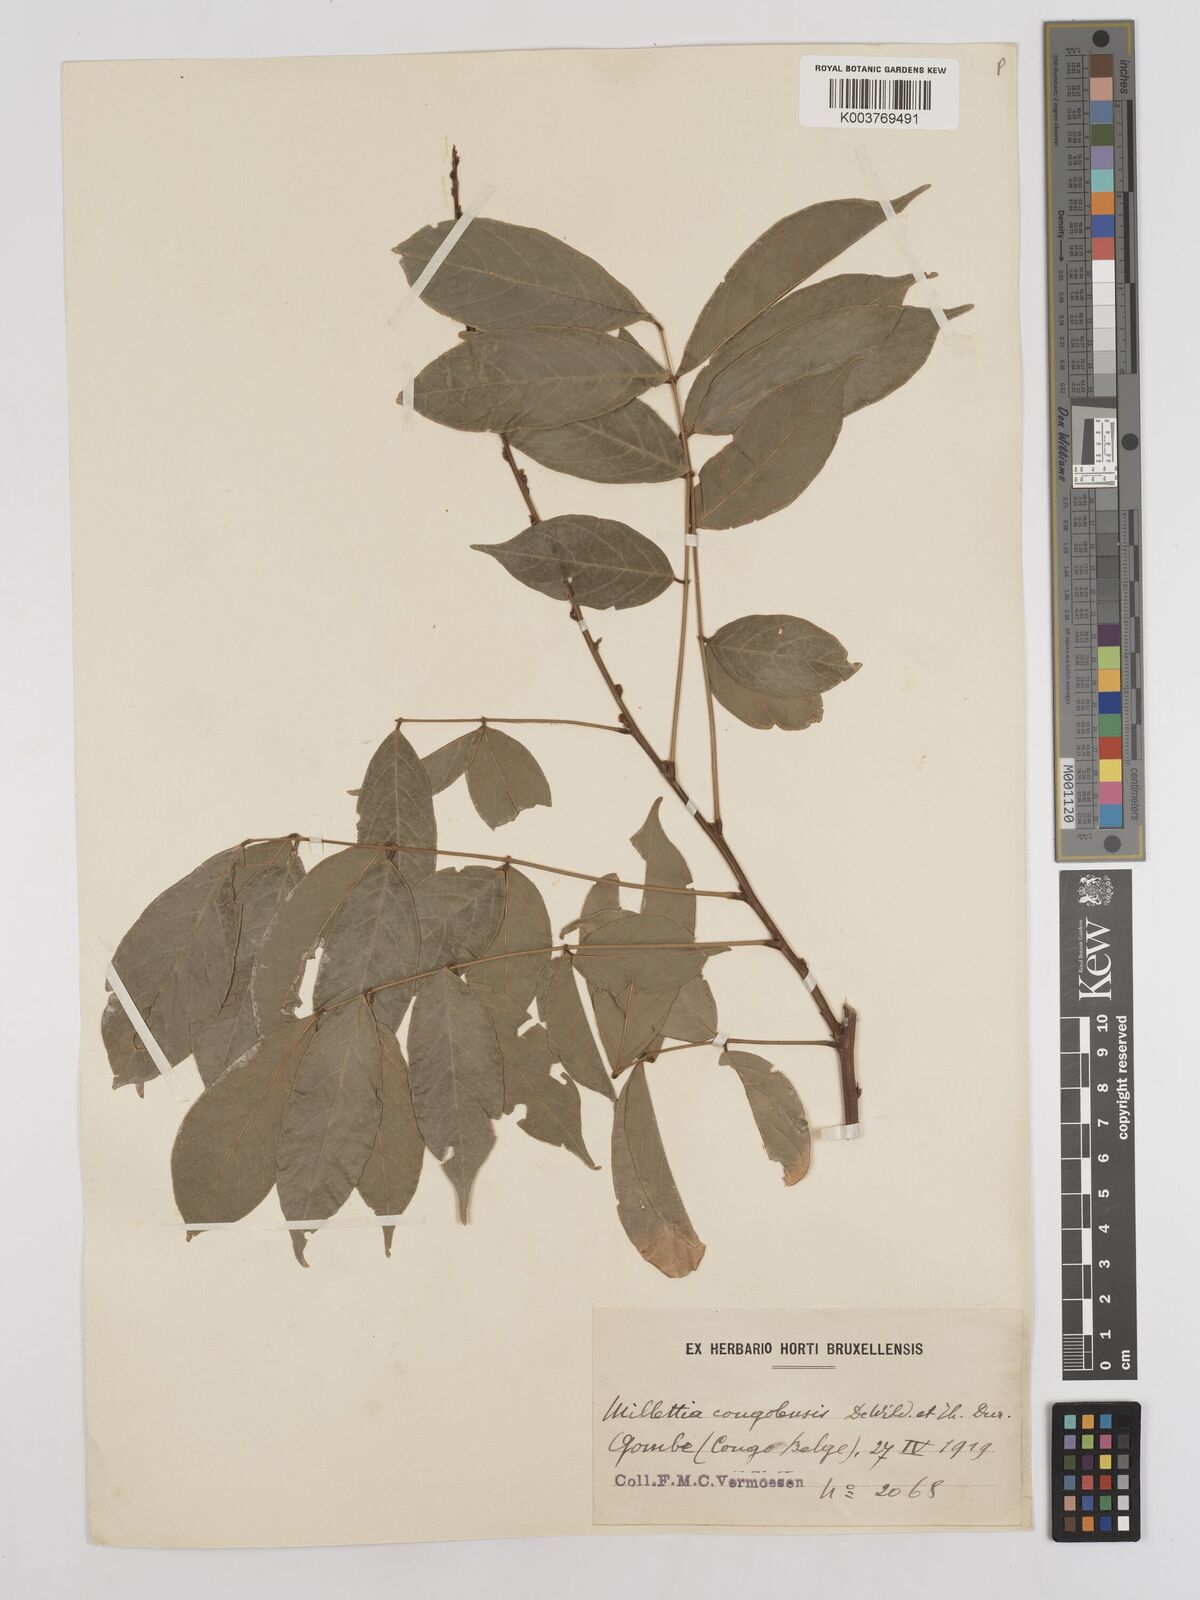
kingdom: Plantae
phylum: Tracheophyta
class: Magnoliopsida
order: Fabales
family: Fabaceae
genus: Millettia
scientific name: Millettia macroura
